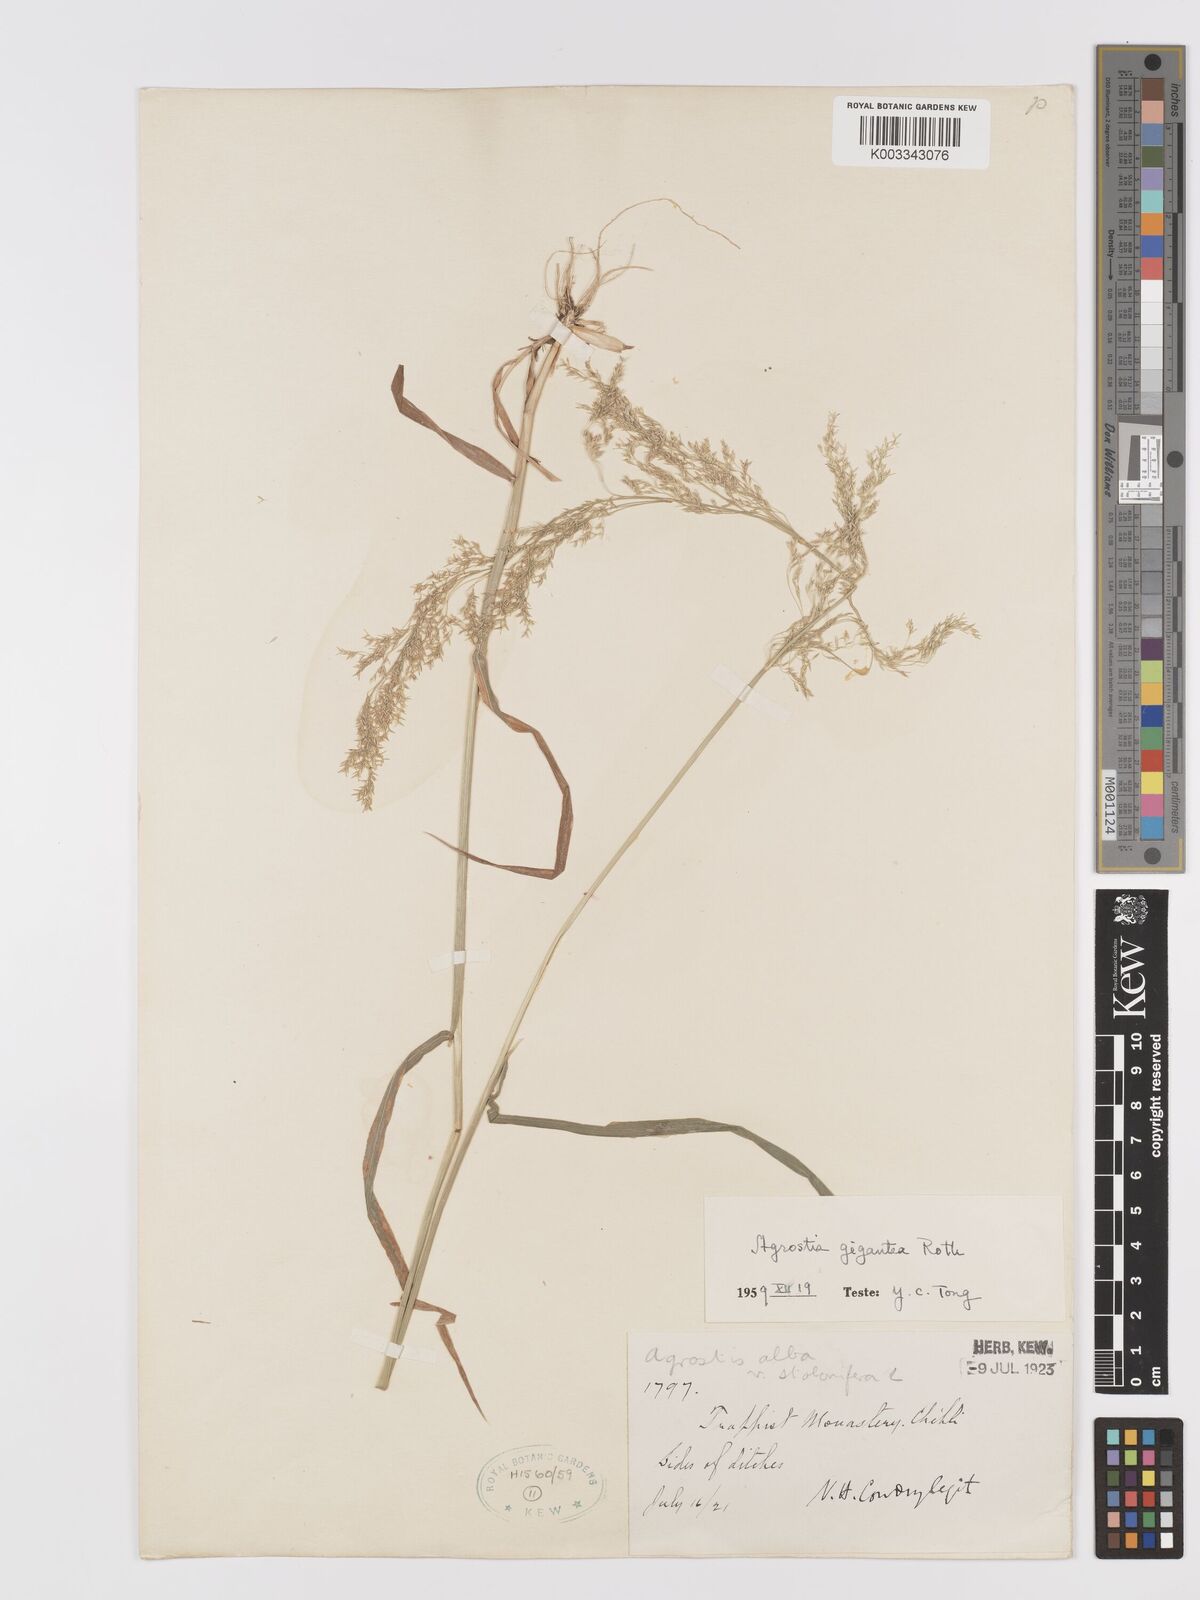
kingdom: Plantae
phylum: Tracheophyta
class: Liliopsida
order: Poales
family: Poaceae
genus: Agrostis
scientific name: Agrostis gigantea
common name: Black bent
